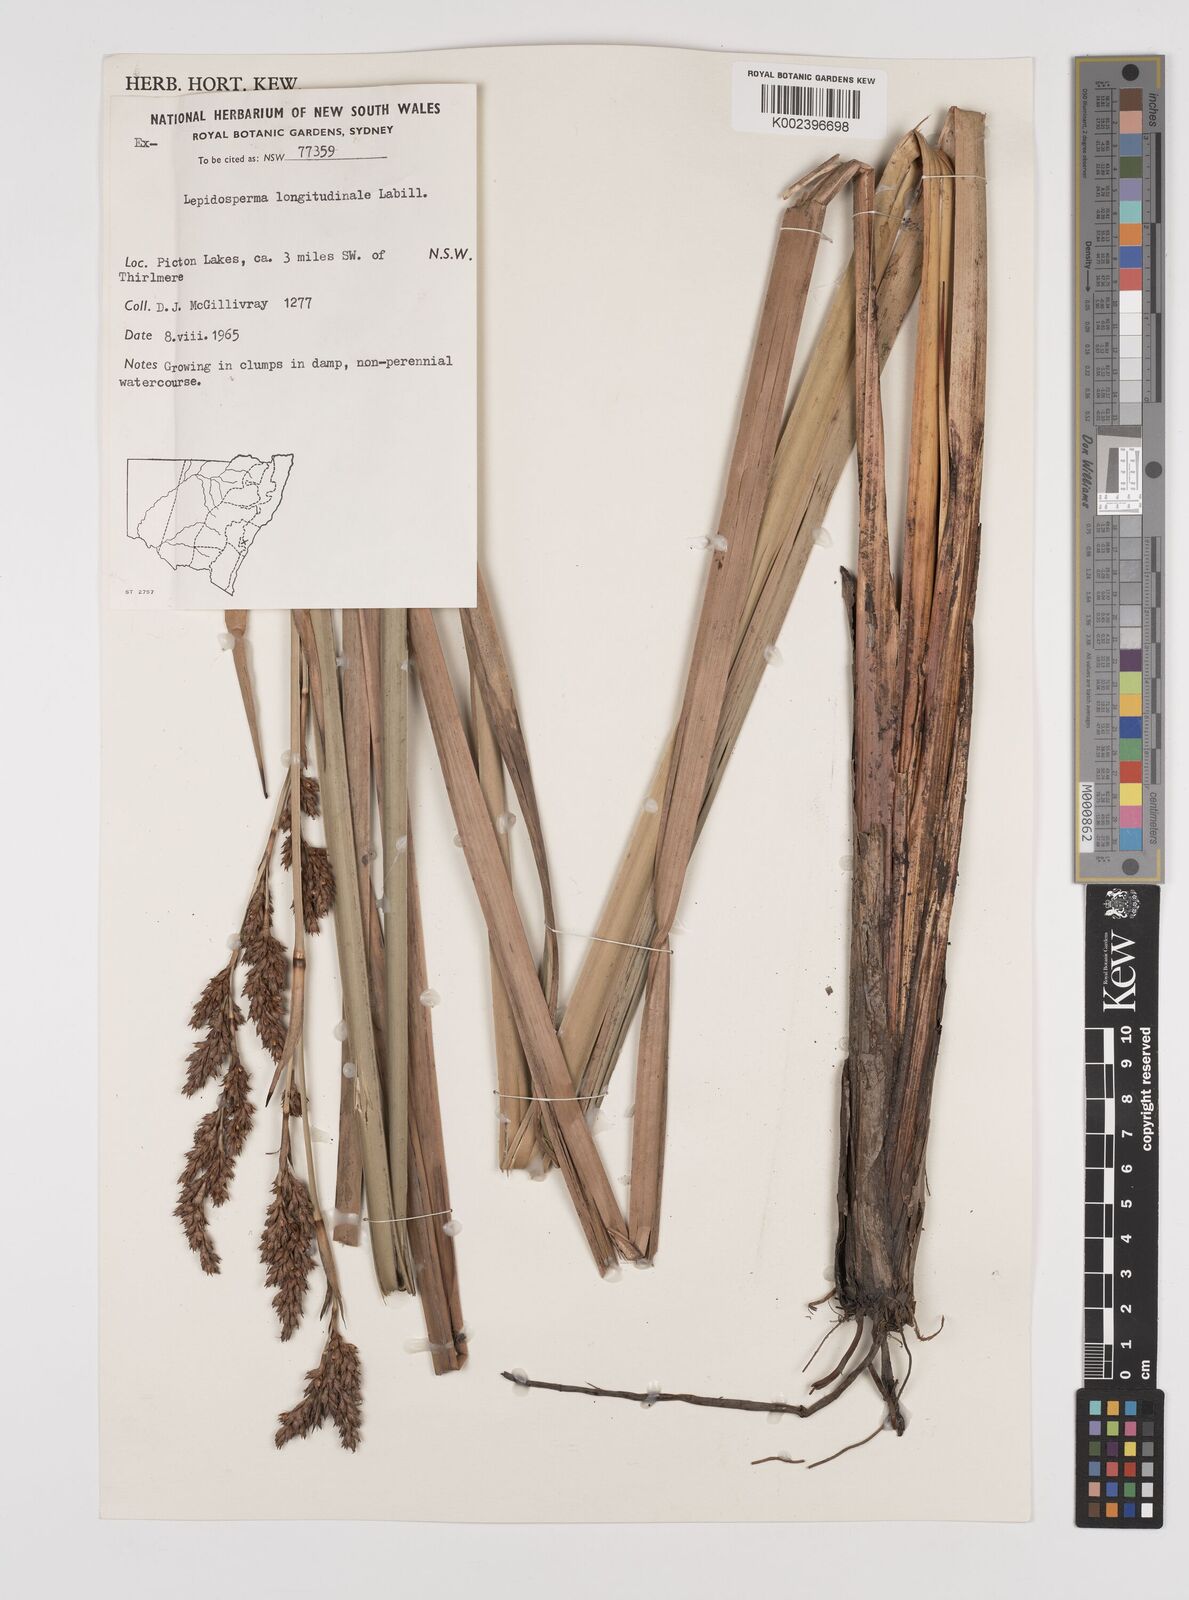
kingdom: Plantae
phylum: Tracheophyta
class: Liliopsida
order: Poales
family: Cyperaceae
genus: Lepidosperma
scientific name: Lepidosperma longitudinale
